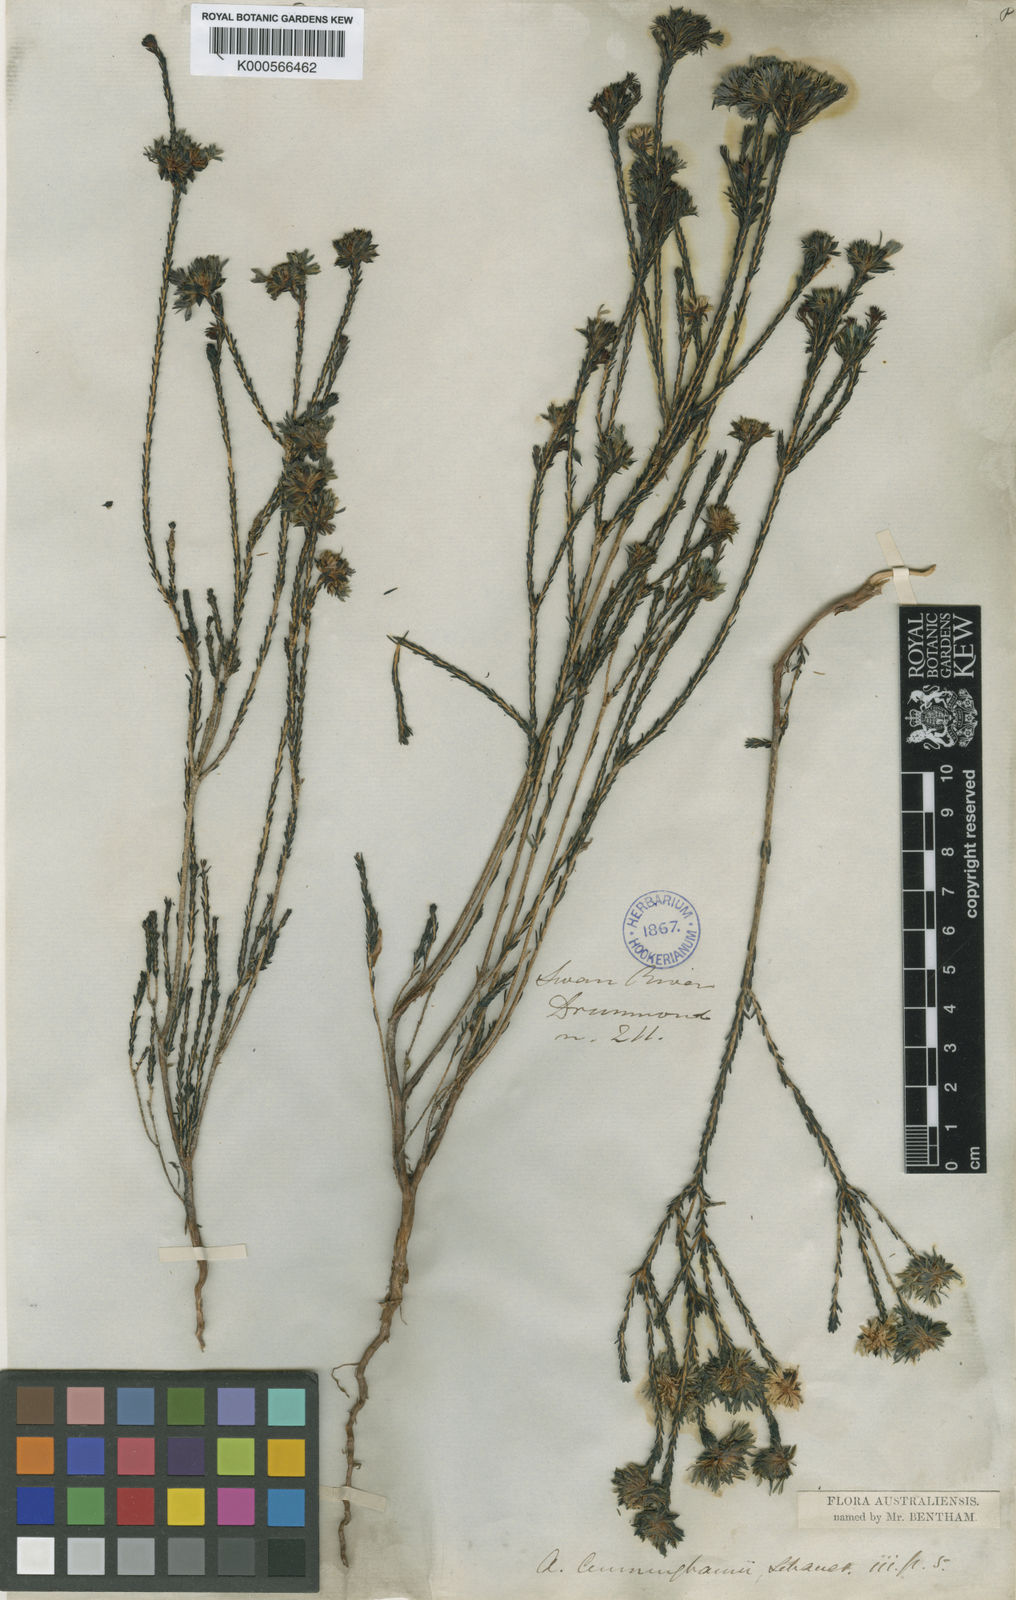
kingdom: Plantae
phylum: Tracheophyta
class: Magnoliopsida
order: Myrtales
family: Myrtaceae
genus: Actinodium
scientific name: Actinodium cunninghamii
